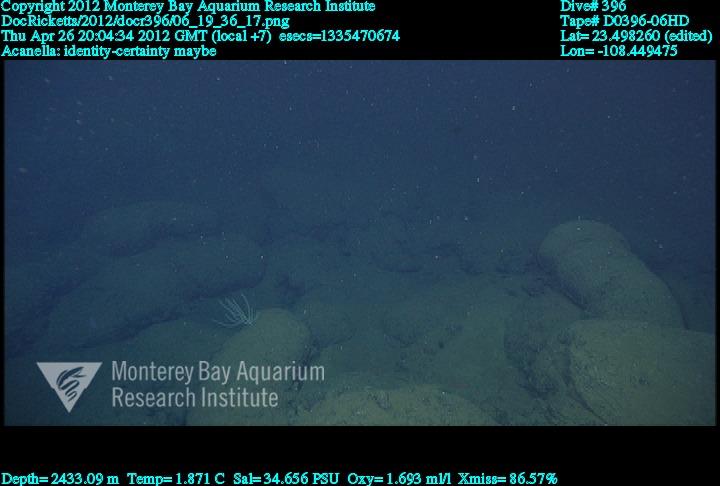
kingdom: Animalia
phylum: Cnidaria
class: Anthozoa
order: Scleralcyonacea
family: Keratoisididae
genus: Acanella
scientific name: Acanella
